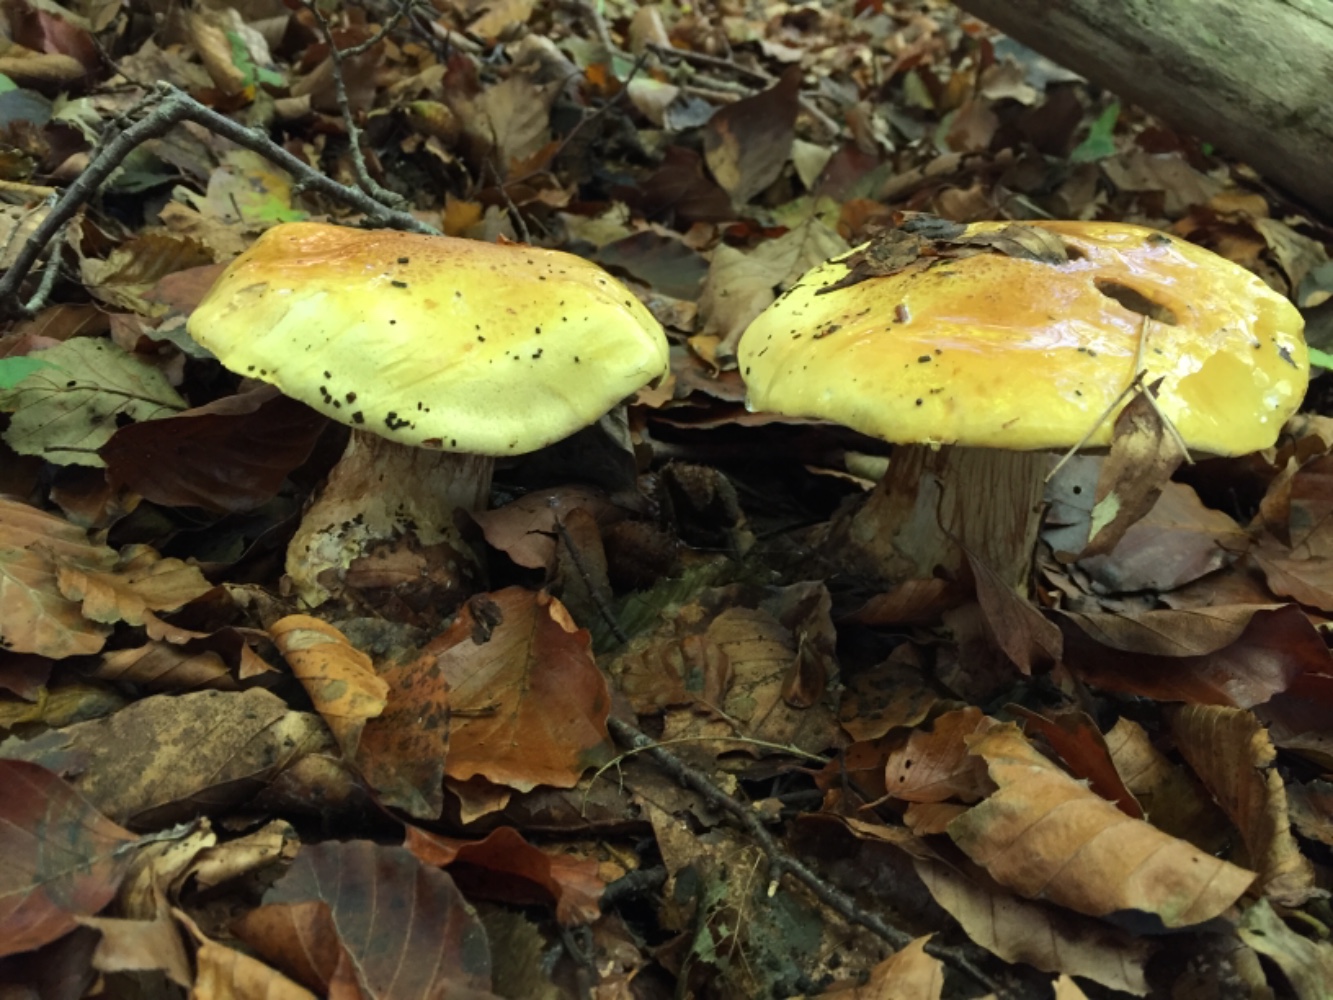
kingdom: Fungi
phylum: Basidiomycota
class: Agaricomycetes
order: Agaricales
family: Cortinariaceae
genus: Calonarius
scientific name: Calonarius elegantissimus
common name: orangegylden slørhat
